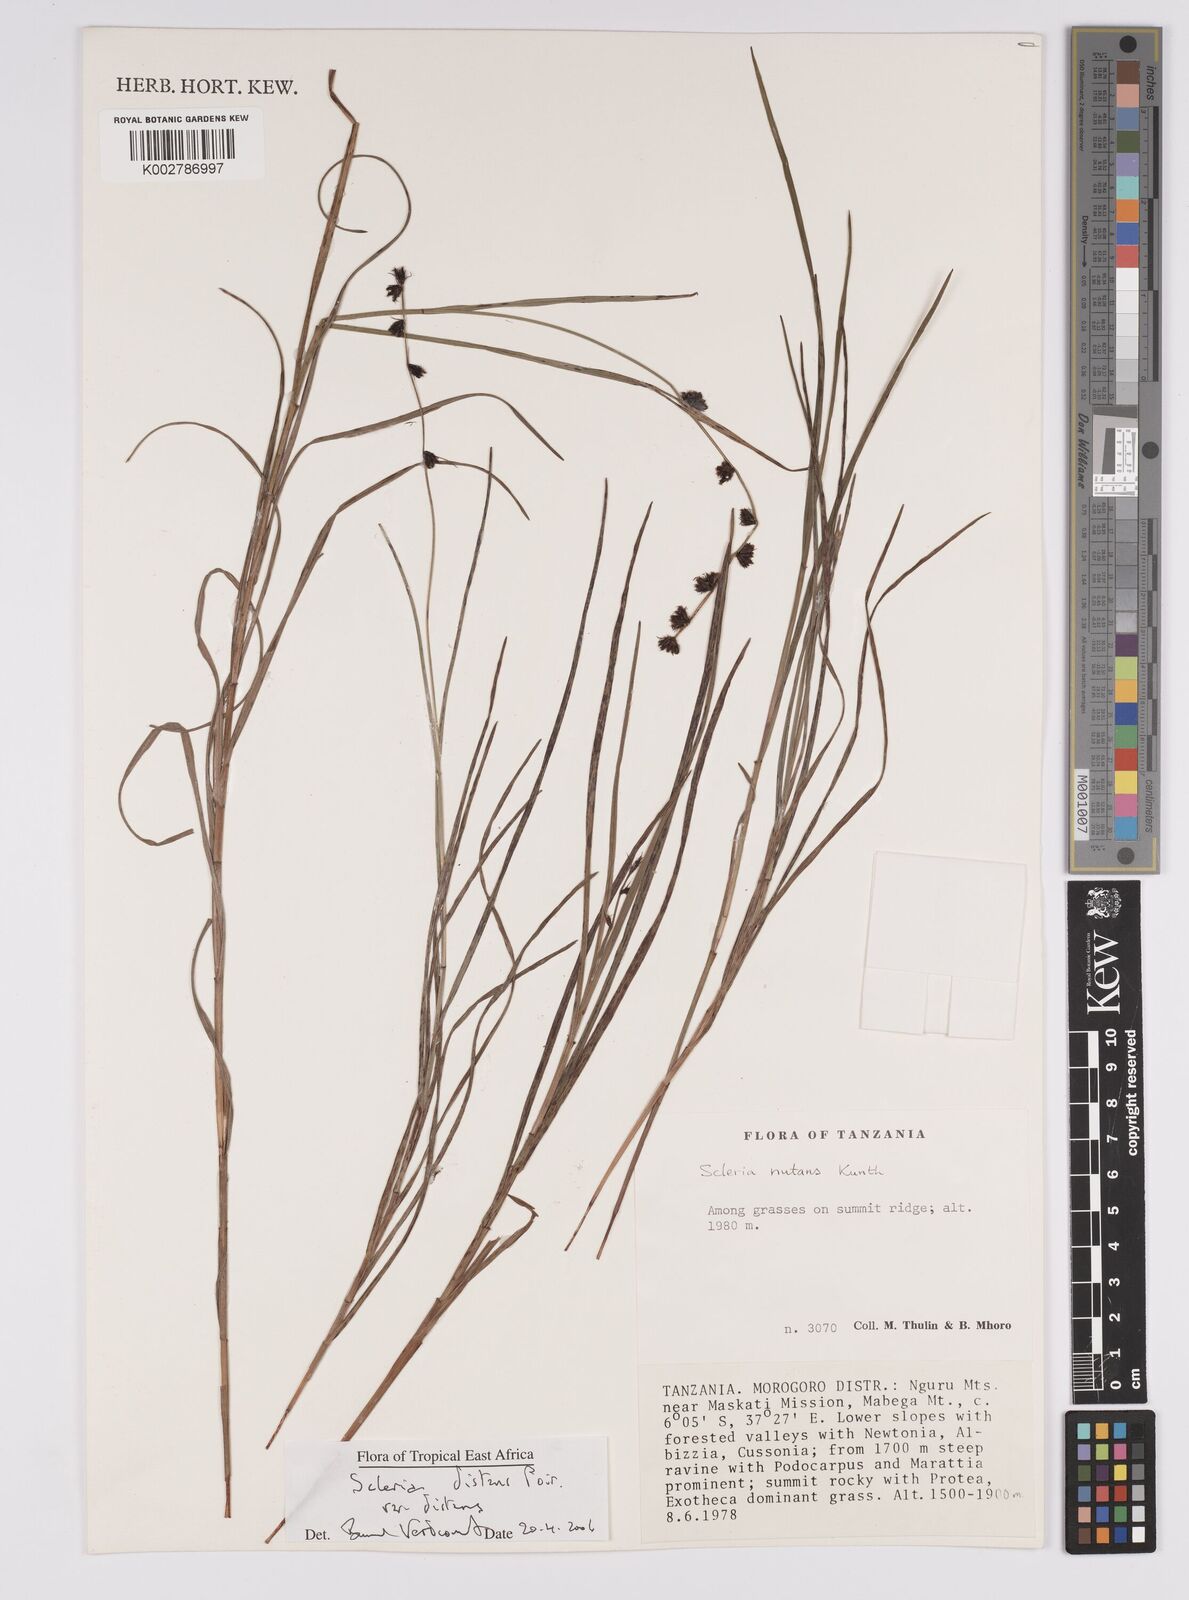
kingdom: Plantae
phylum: Tracheophyta
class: Liliopsida
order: Poales
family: Cyperaceae
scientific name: Cyperaceae
